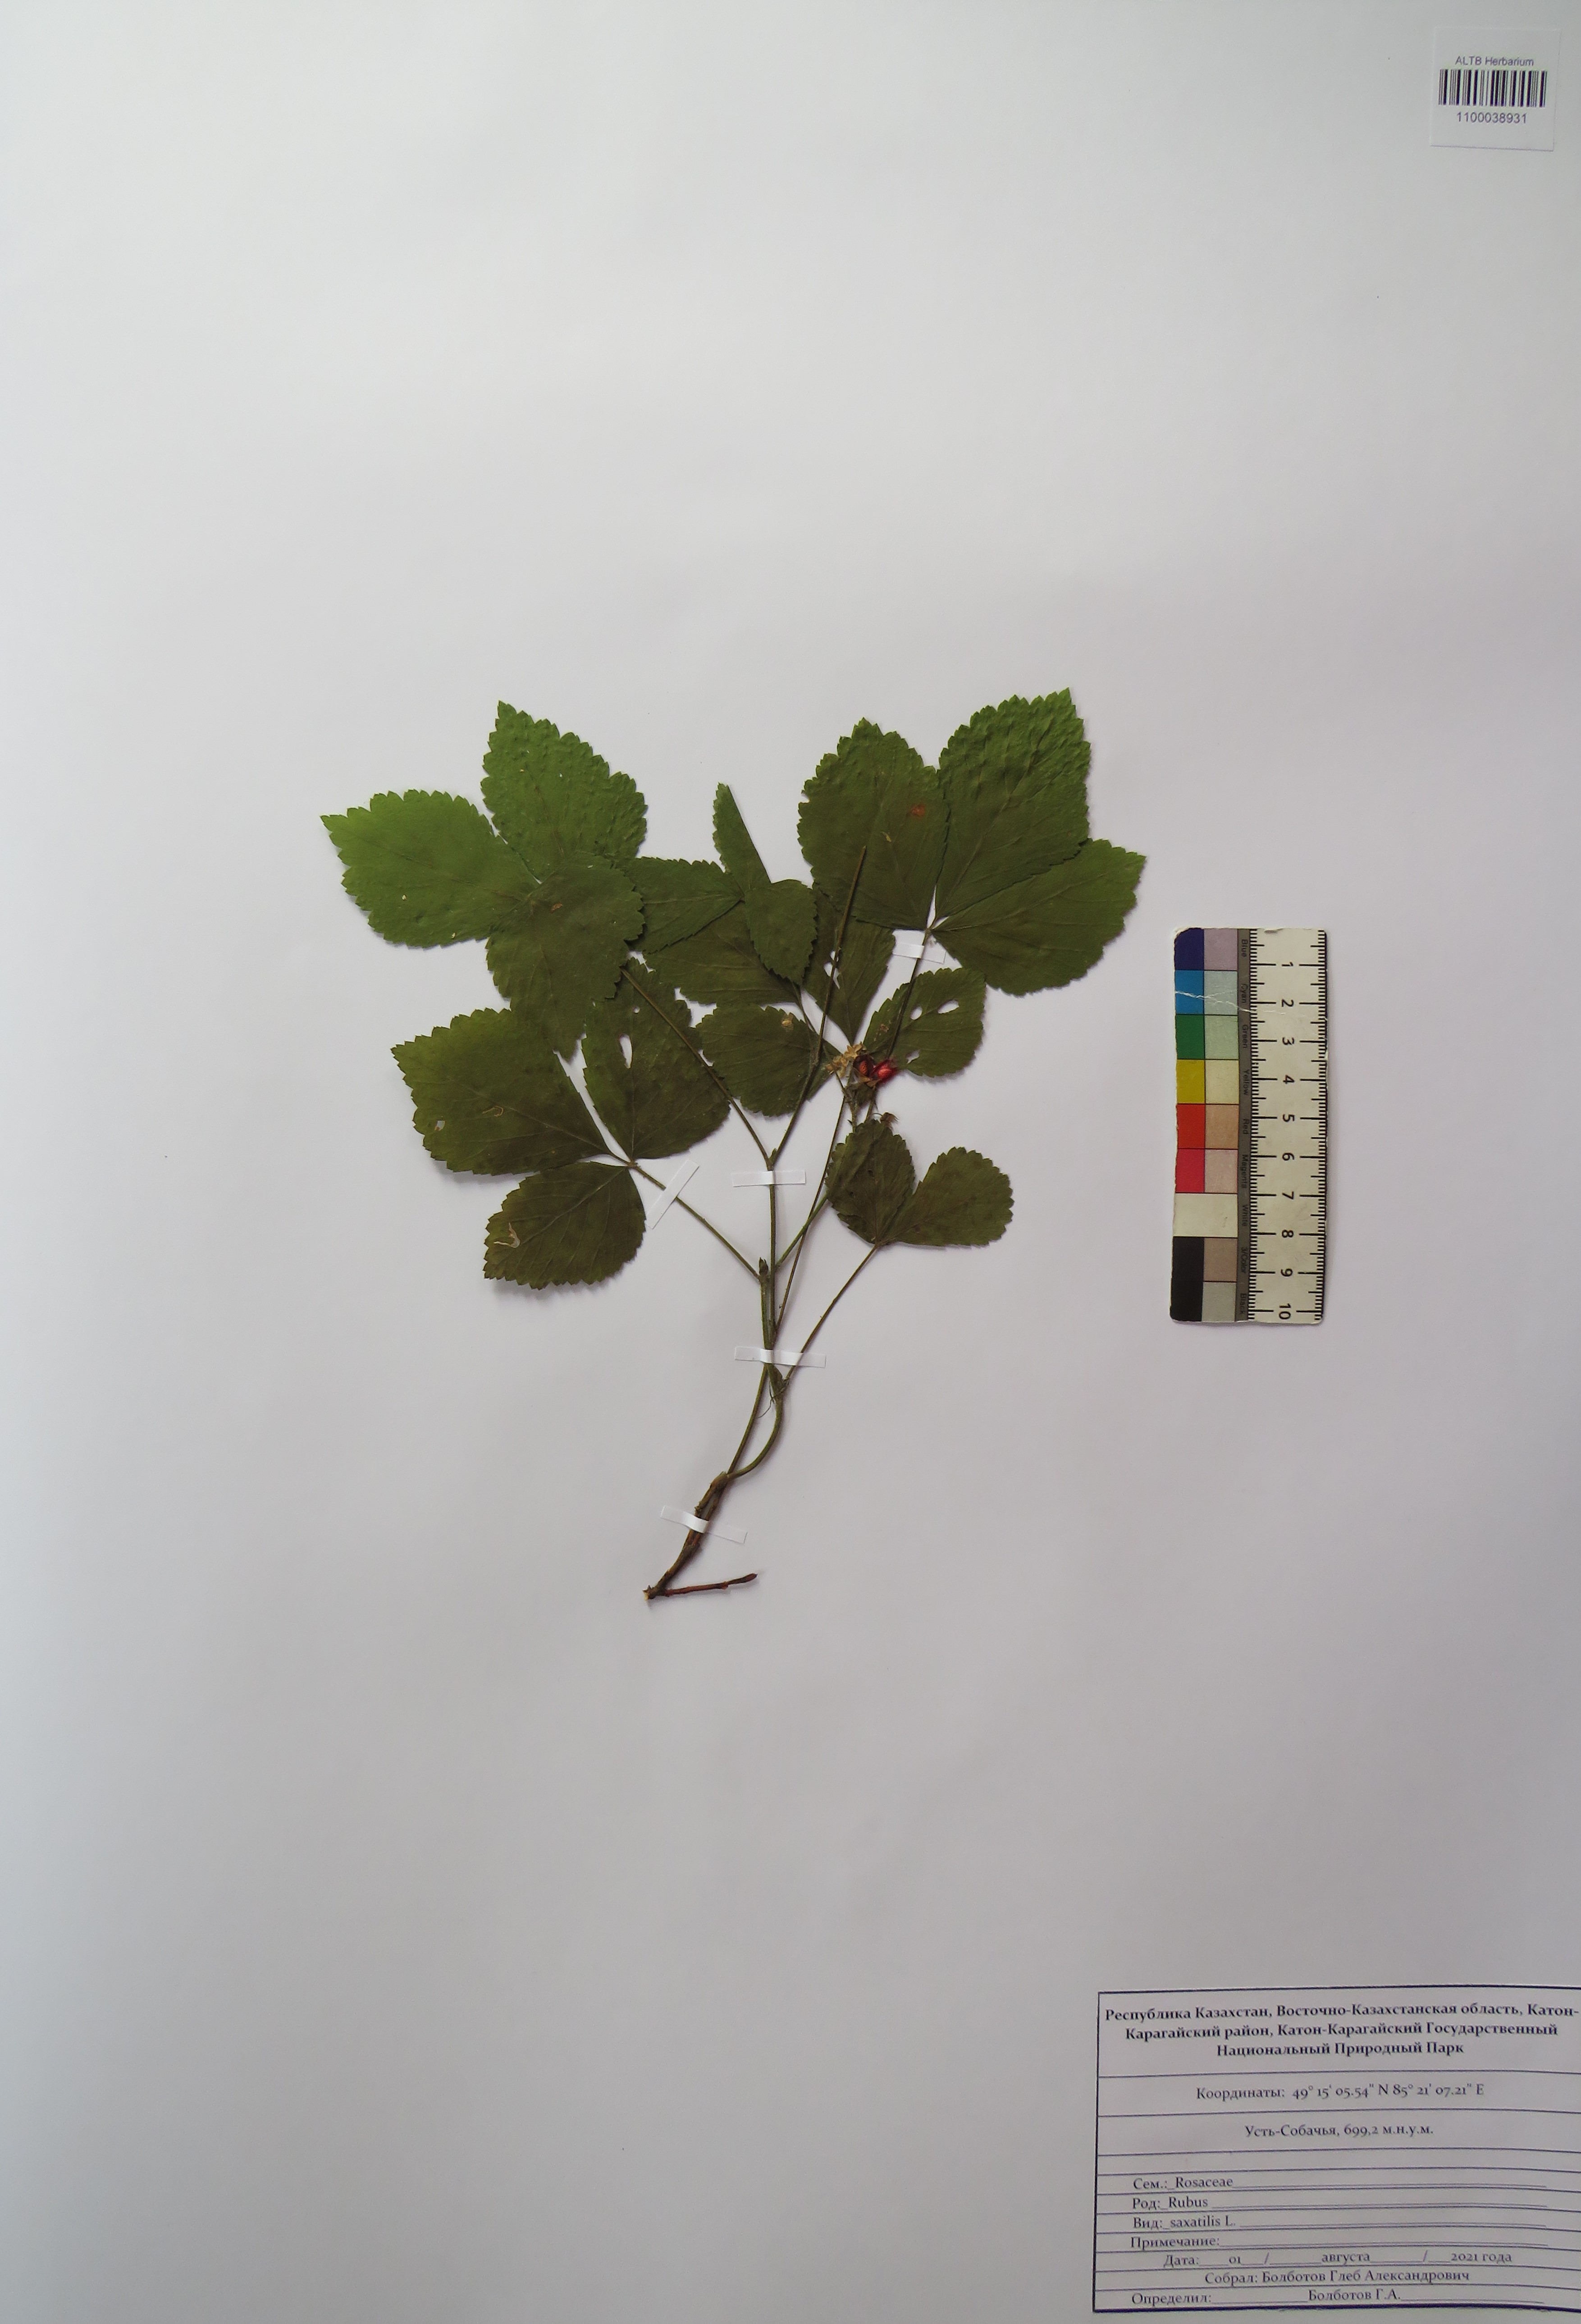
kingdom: Plantae
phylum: Tracheophyta
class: Magnoliopsida
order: Rosales
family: Rosaceae
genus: Rubus
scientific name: Rubus saxatilis
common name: Stone bramble
